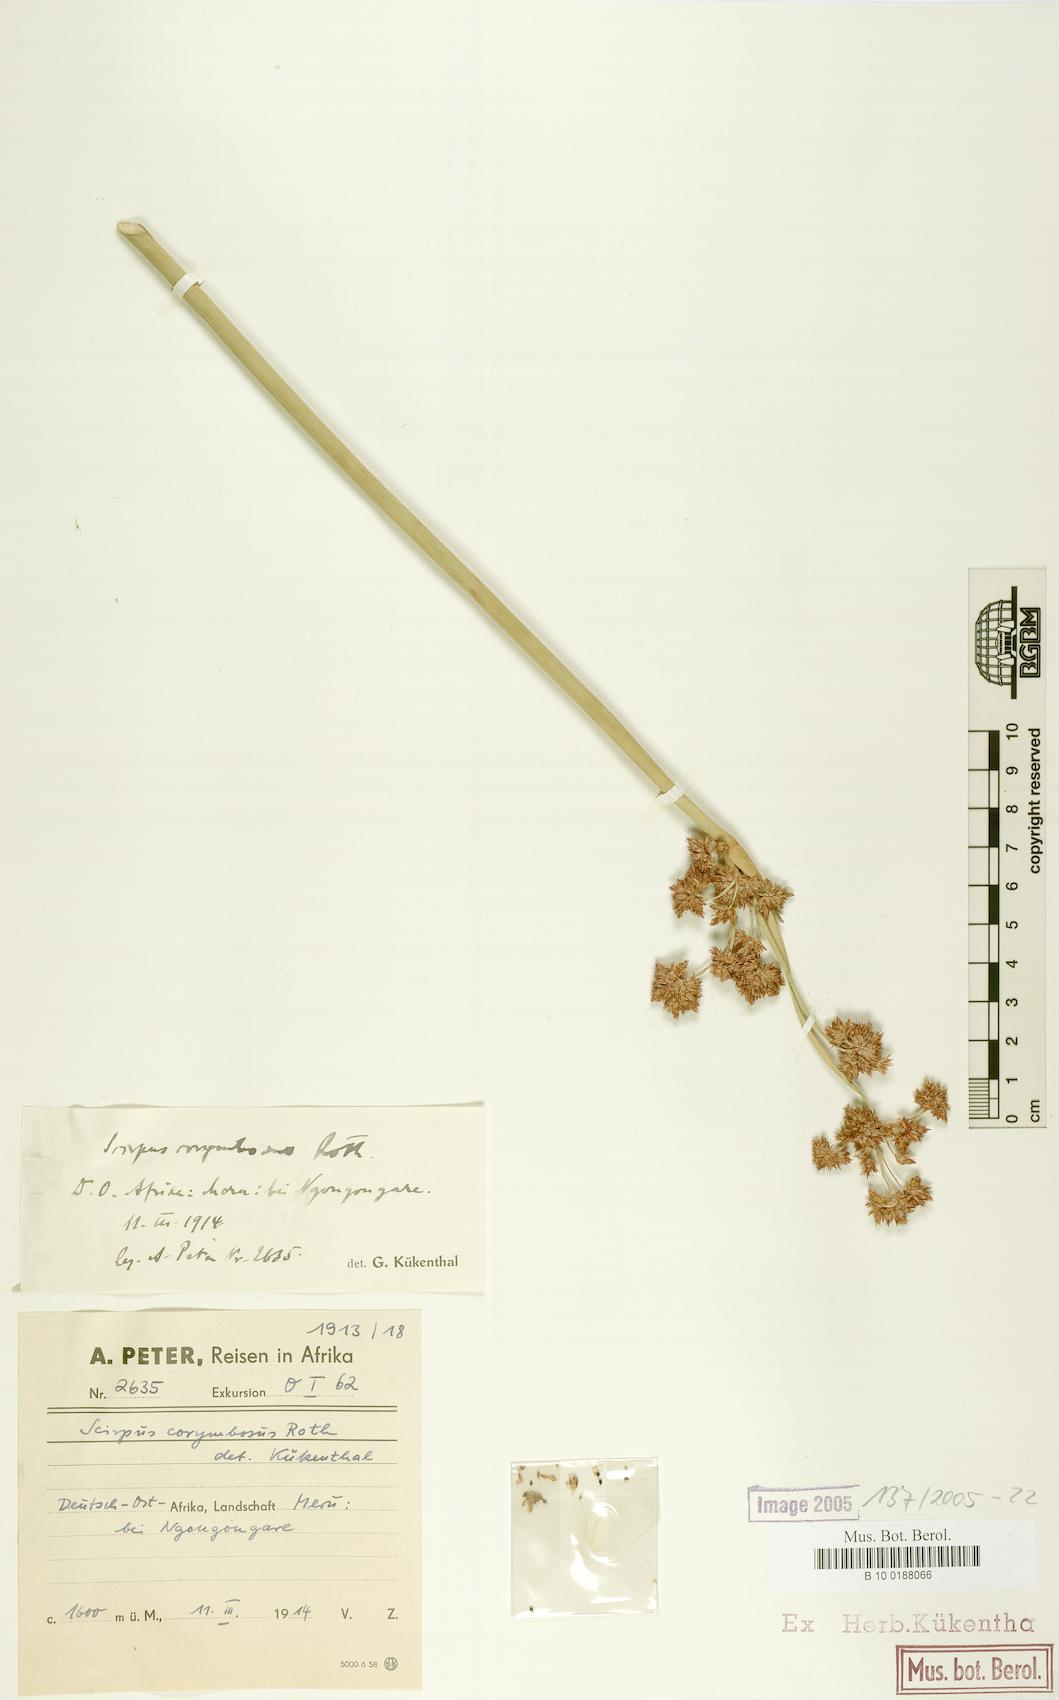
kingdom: Plantae
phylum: Tracheophyta
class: Liliopsida
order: Poales
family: Cyperaceae
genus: Schoenoplectiella
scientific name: Schoenoplectiella brachyceras
